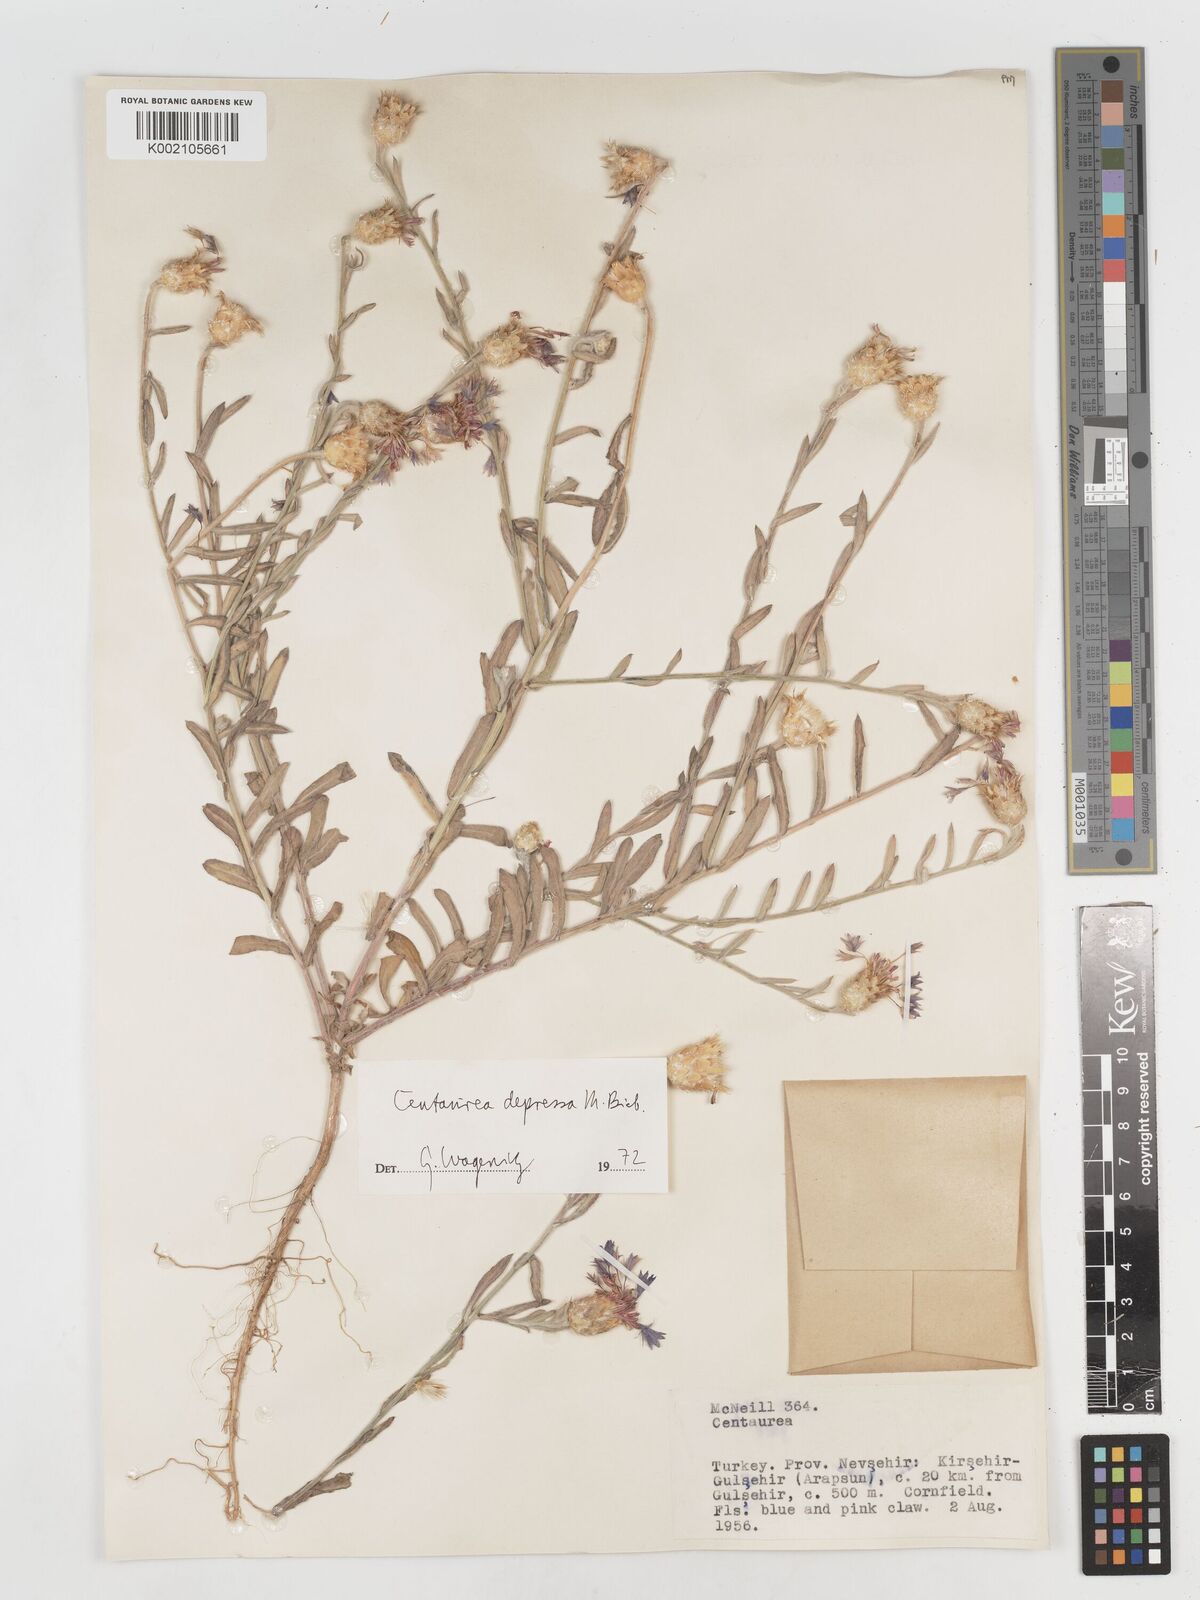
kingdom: Plantae
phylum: Tracheophyta
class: Magnoliopsida
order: Asterales
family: Asteraceae
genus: Centaurea
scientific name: Centaurea depressa
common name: Iranian knapweed
